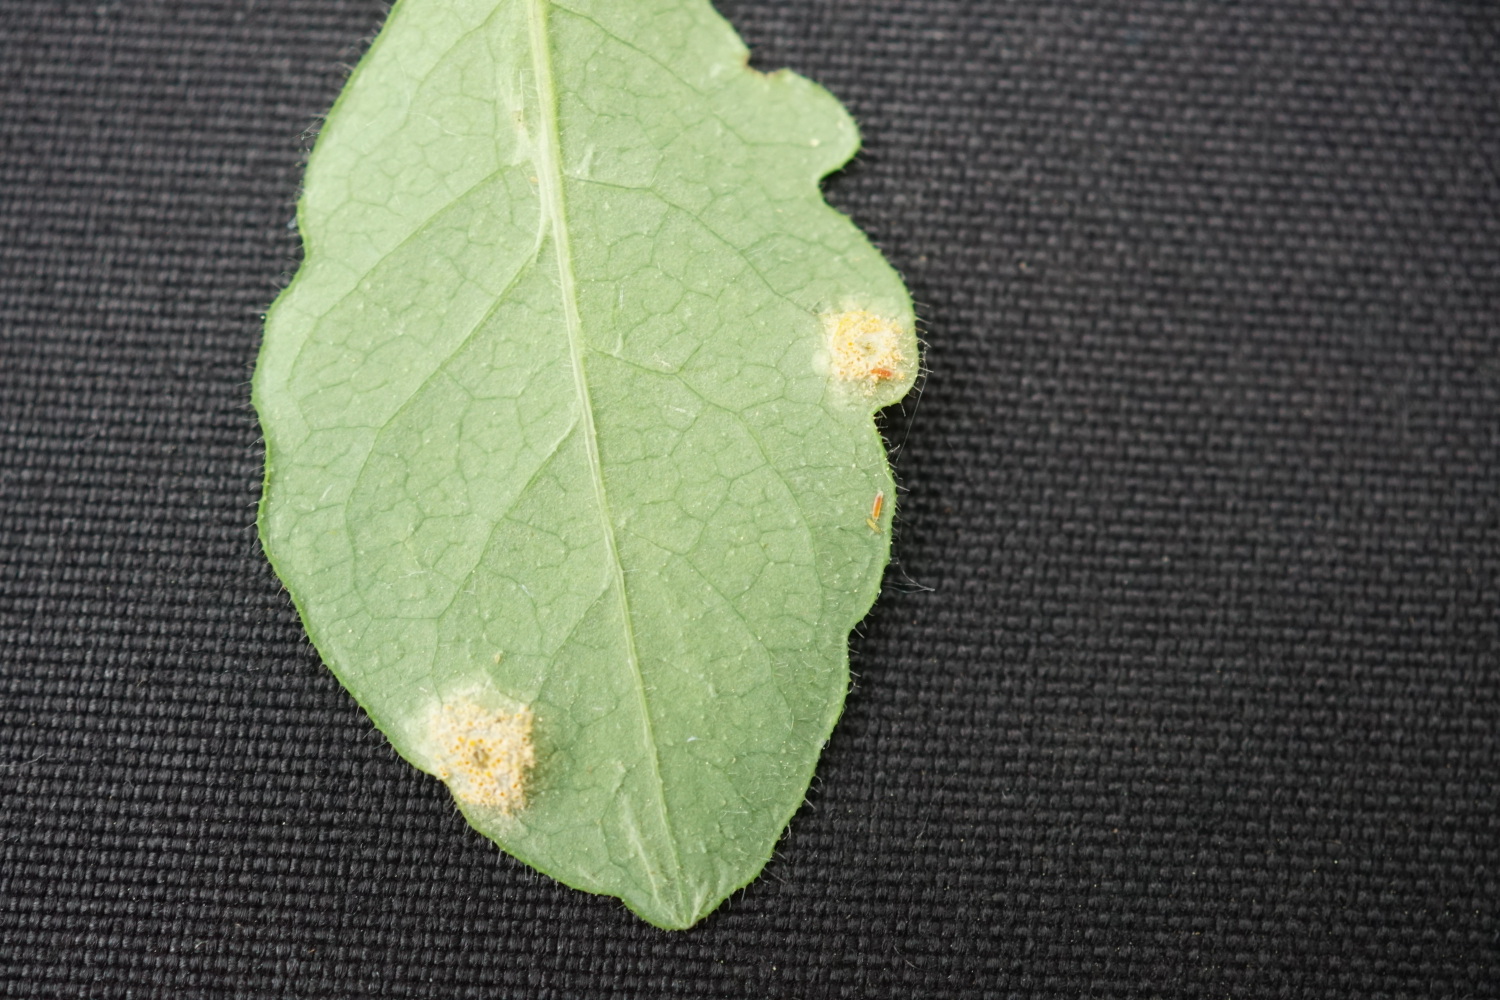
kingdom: Fungi
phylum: Basidiomycota
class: Pucciniomycetes
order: Pucciniales
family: Pucciniaceae
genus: Puccinia
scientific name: Puccinia festucae
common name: gedeblad-tvecellerust
